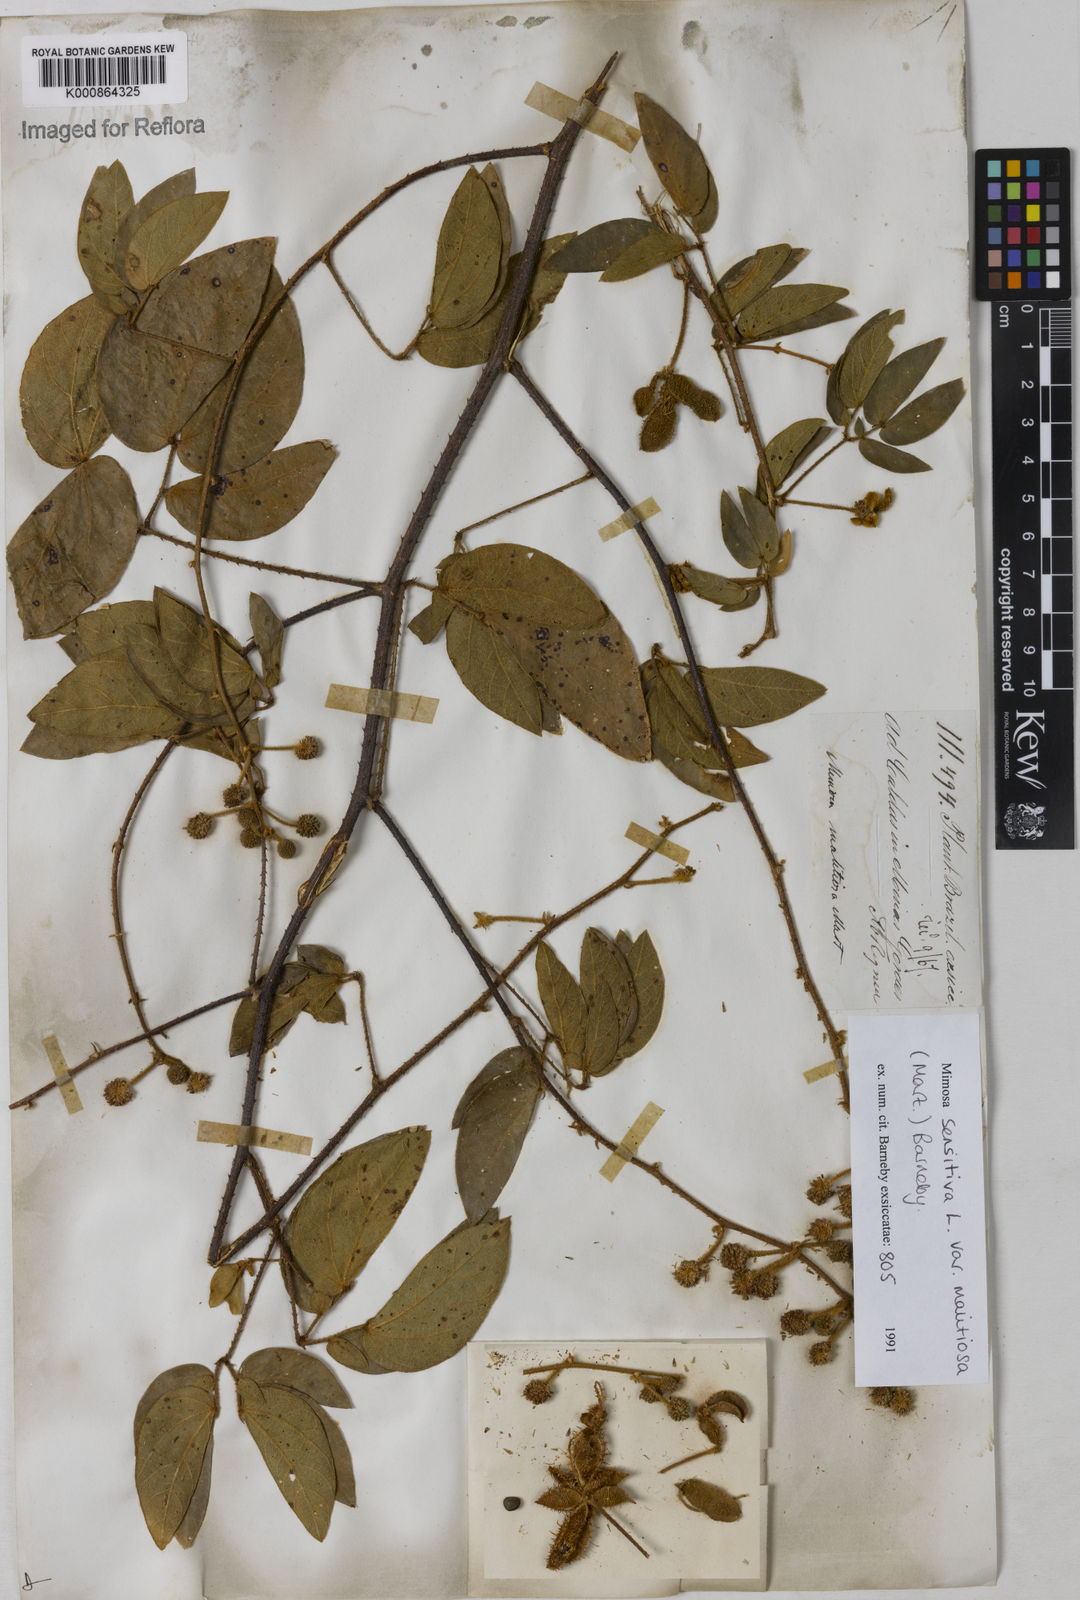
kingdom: Plantae
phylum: Tracheophyta
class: Magnoliopsida
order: Fabales
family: Fabaceae
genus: Mimosa
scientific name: Mimosa sensitiva
